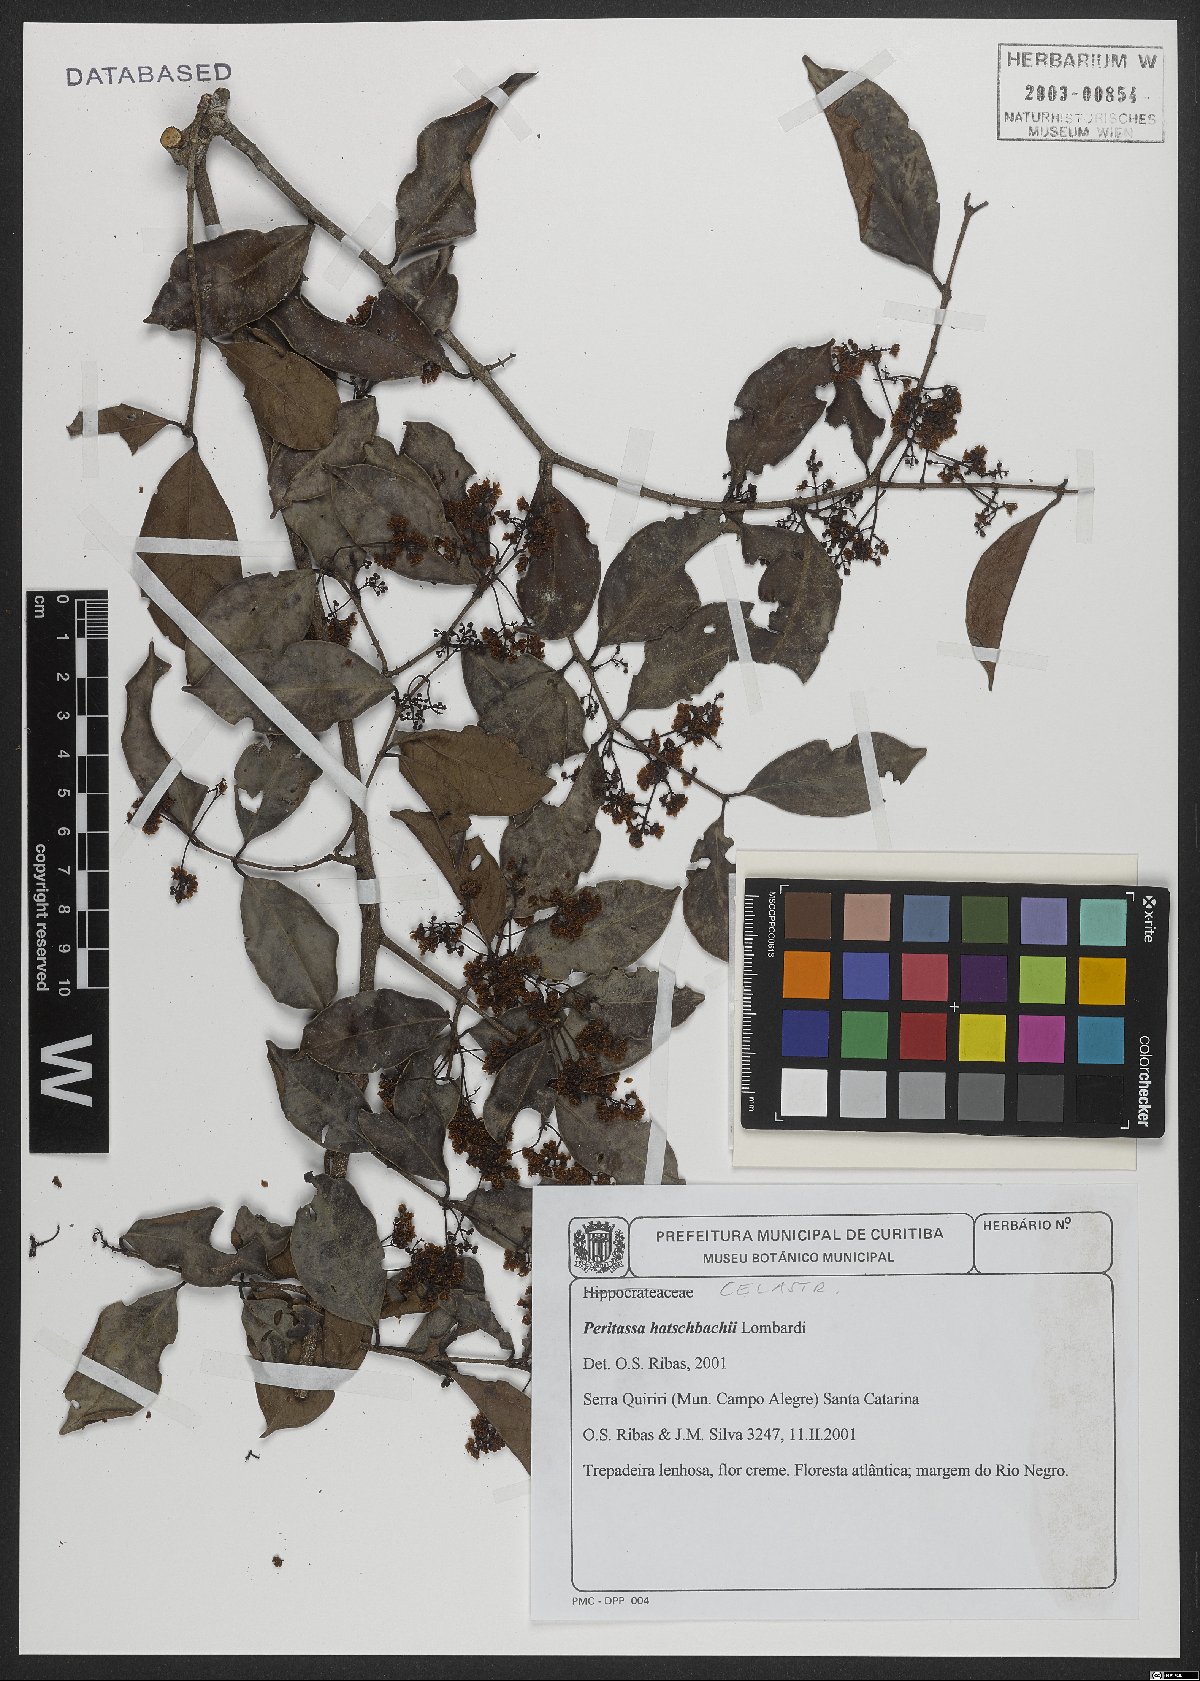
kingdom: Plantae
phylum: Tracheophyta
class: Magnoliopsida
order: Celastrales
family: Celastraceae
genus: Peritassa
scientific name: Peritassa hatschbachii
